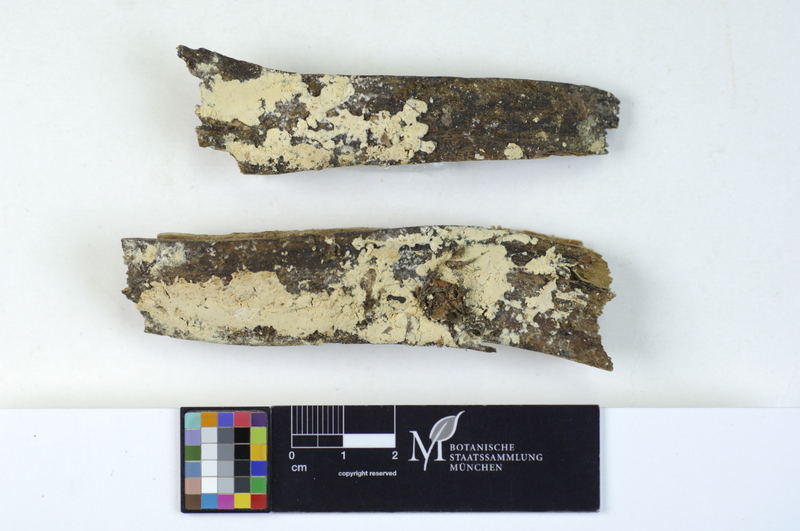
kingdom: Fungi
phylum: Basidiomycota
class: Agaricomycetes
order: Polyporales
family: Dacryobolaceae
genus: Oligoporus
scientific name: Oligoporus rennyi
